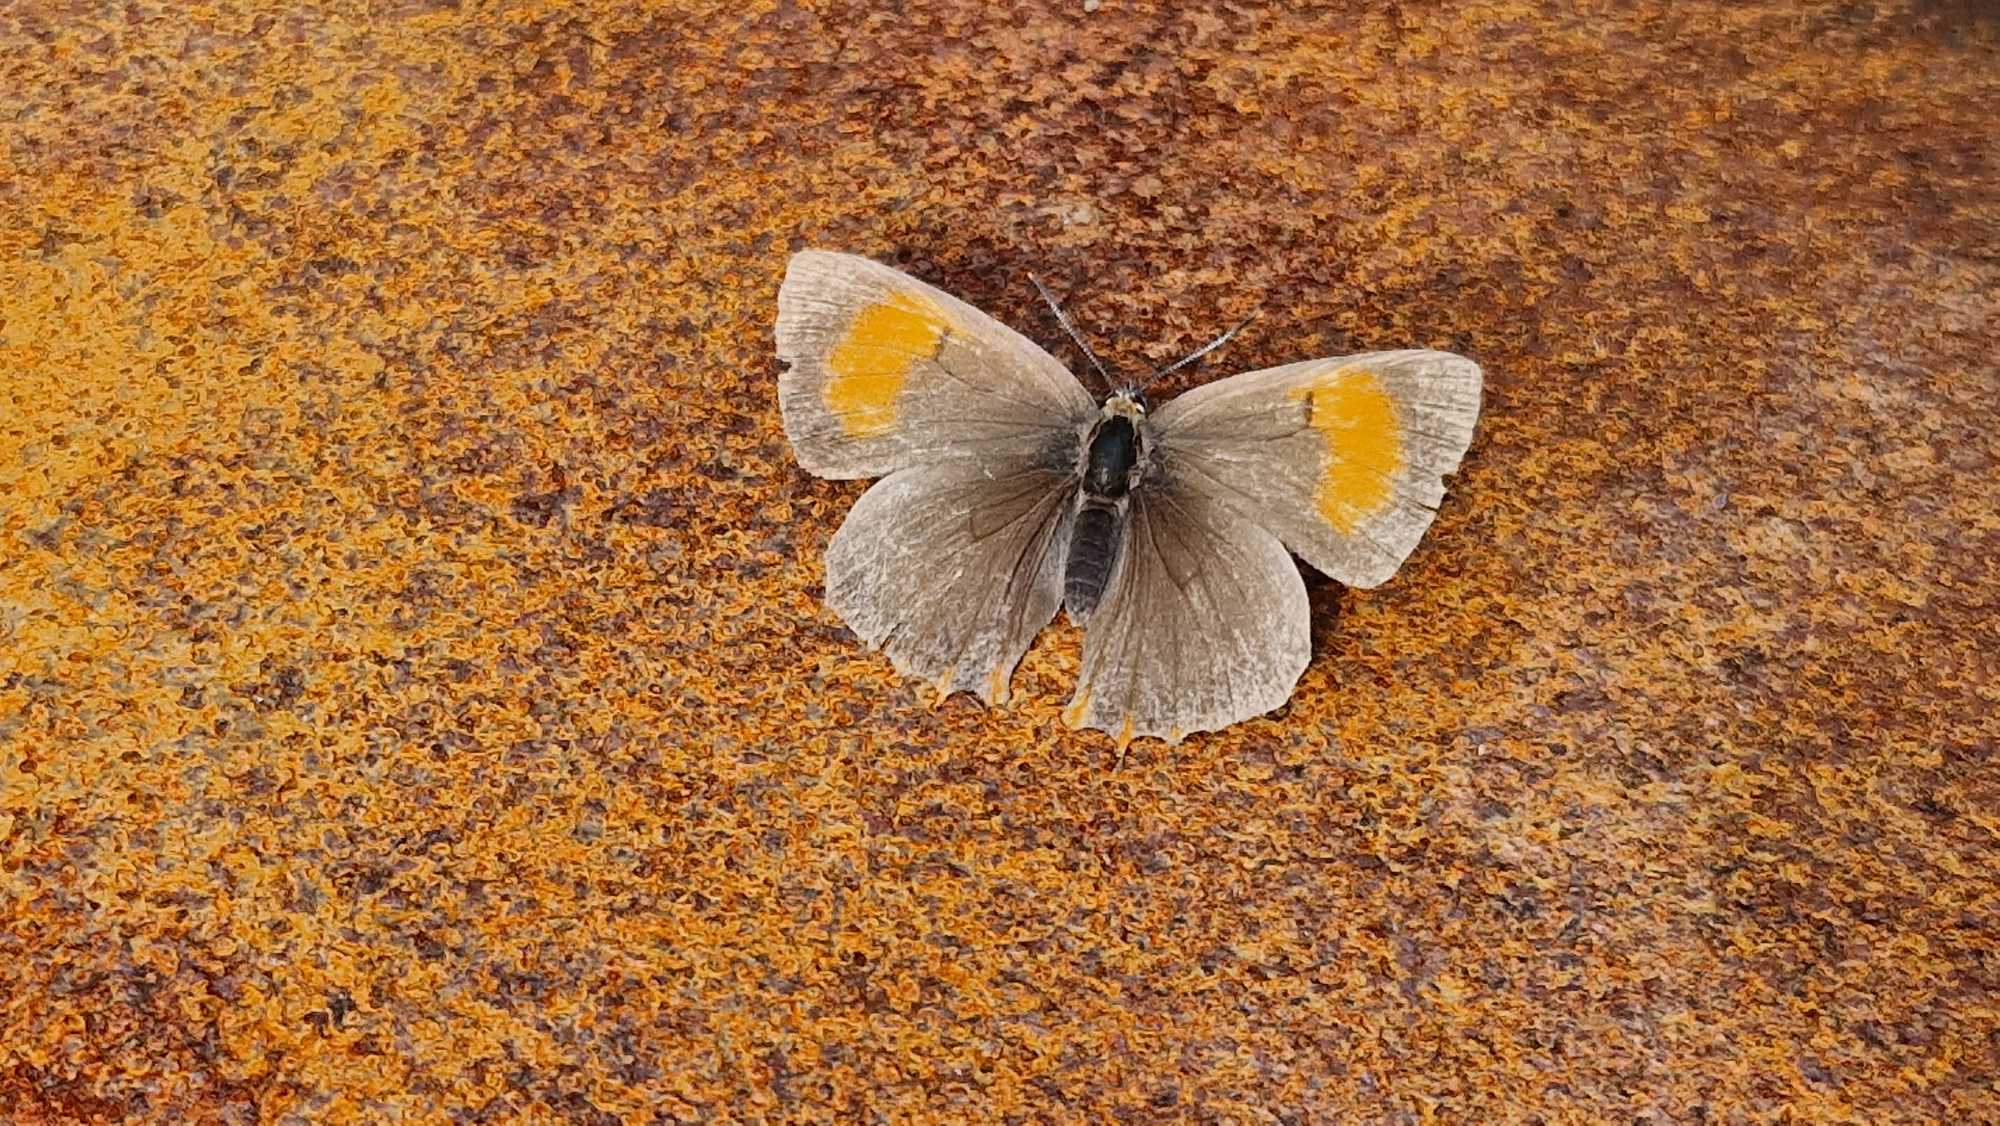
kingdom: Animalia
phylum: Arthropoda
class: Insecta
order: Lepidoptera
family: Lycaenidae
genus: Thecla
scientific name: Thecla betulae
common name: Guldhale
